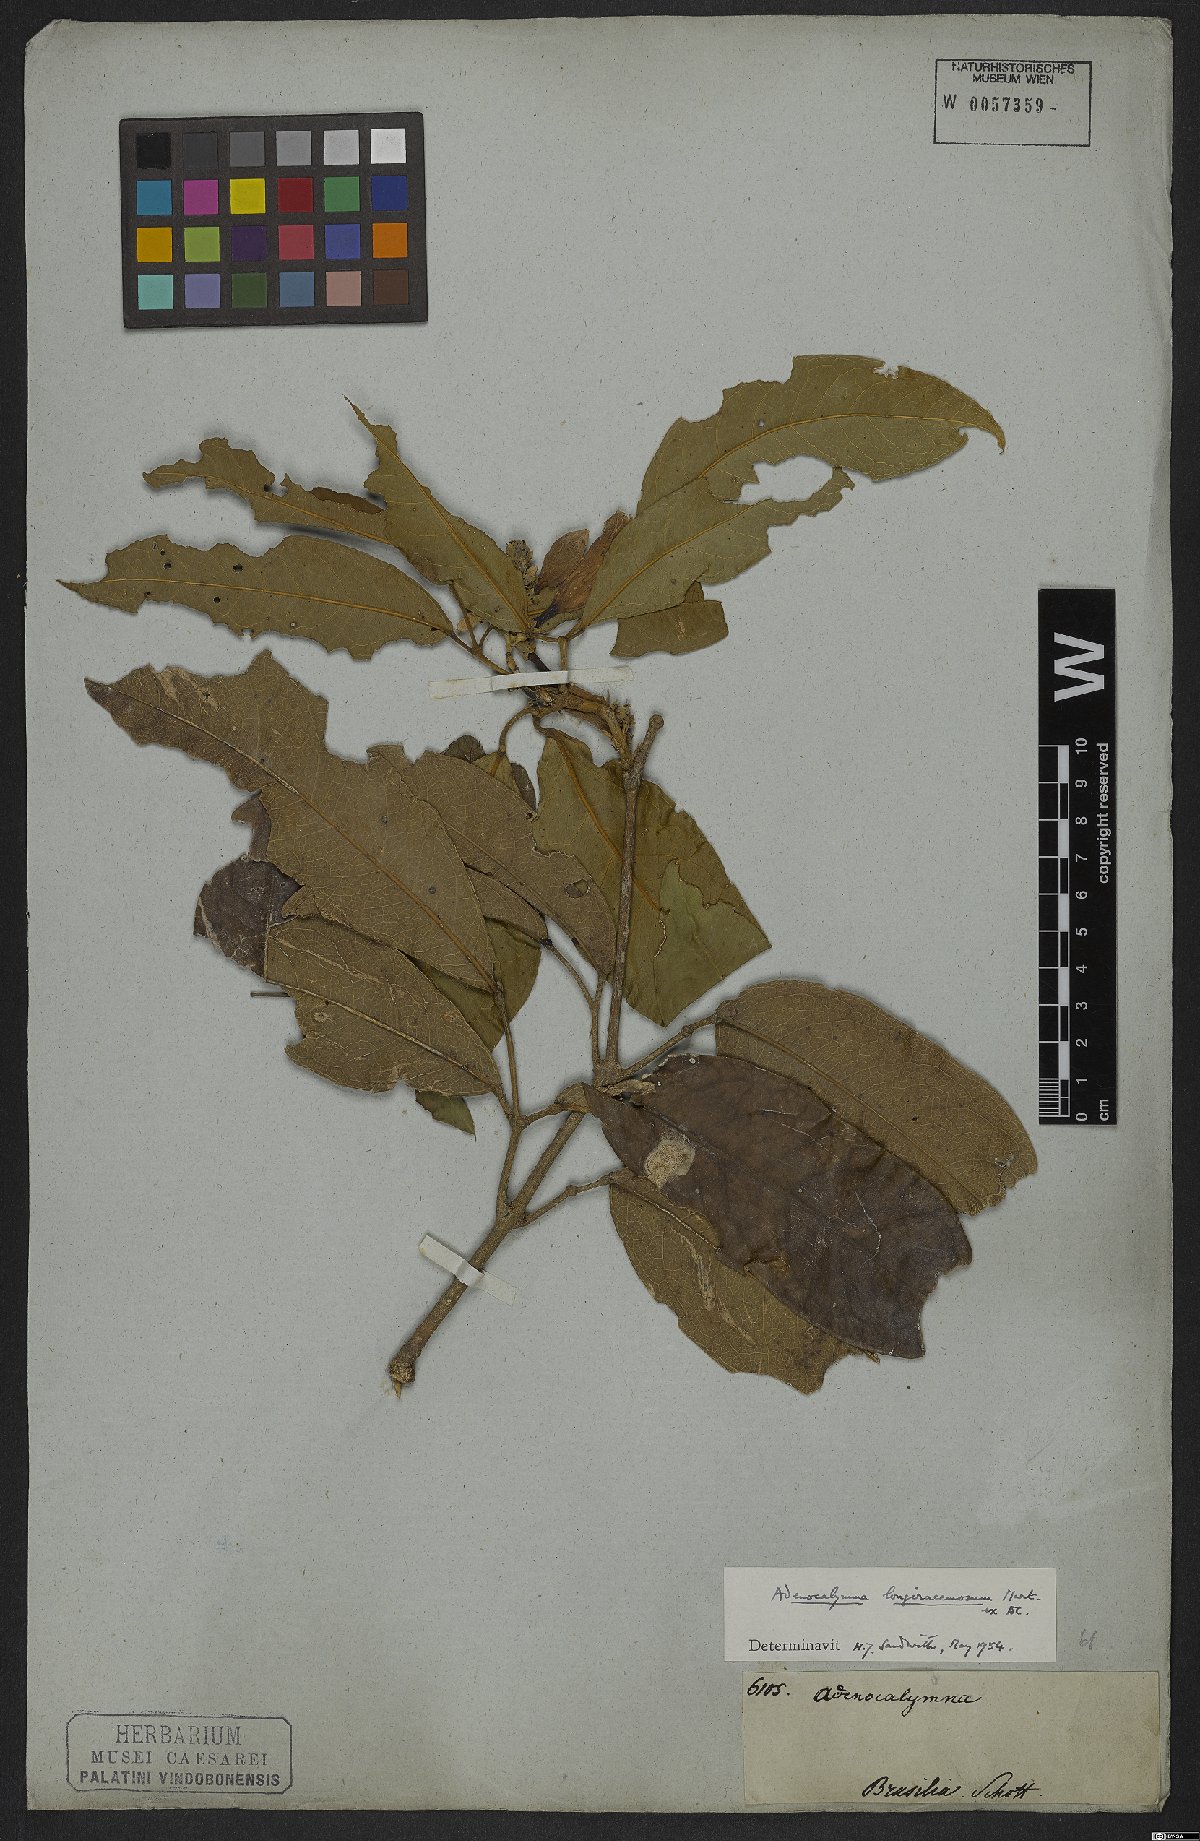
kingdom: Plantae
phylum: Tracheophyta
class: Magnoliopsida
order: Lamiales
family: Bignoniaceae
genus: Adenocalymma
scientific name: Adenocalymma trifoliatum
